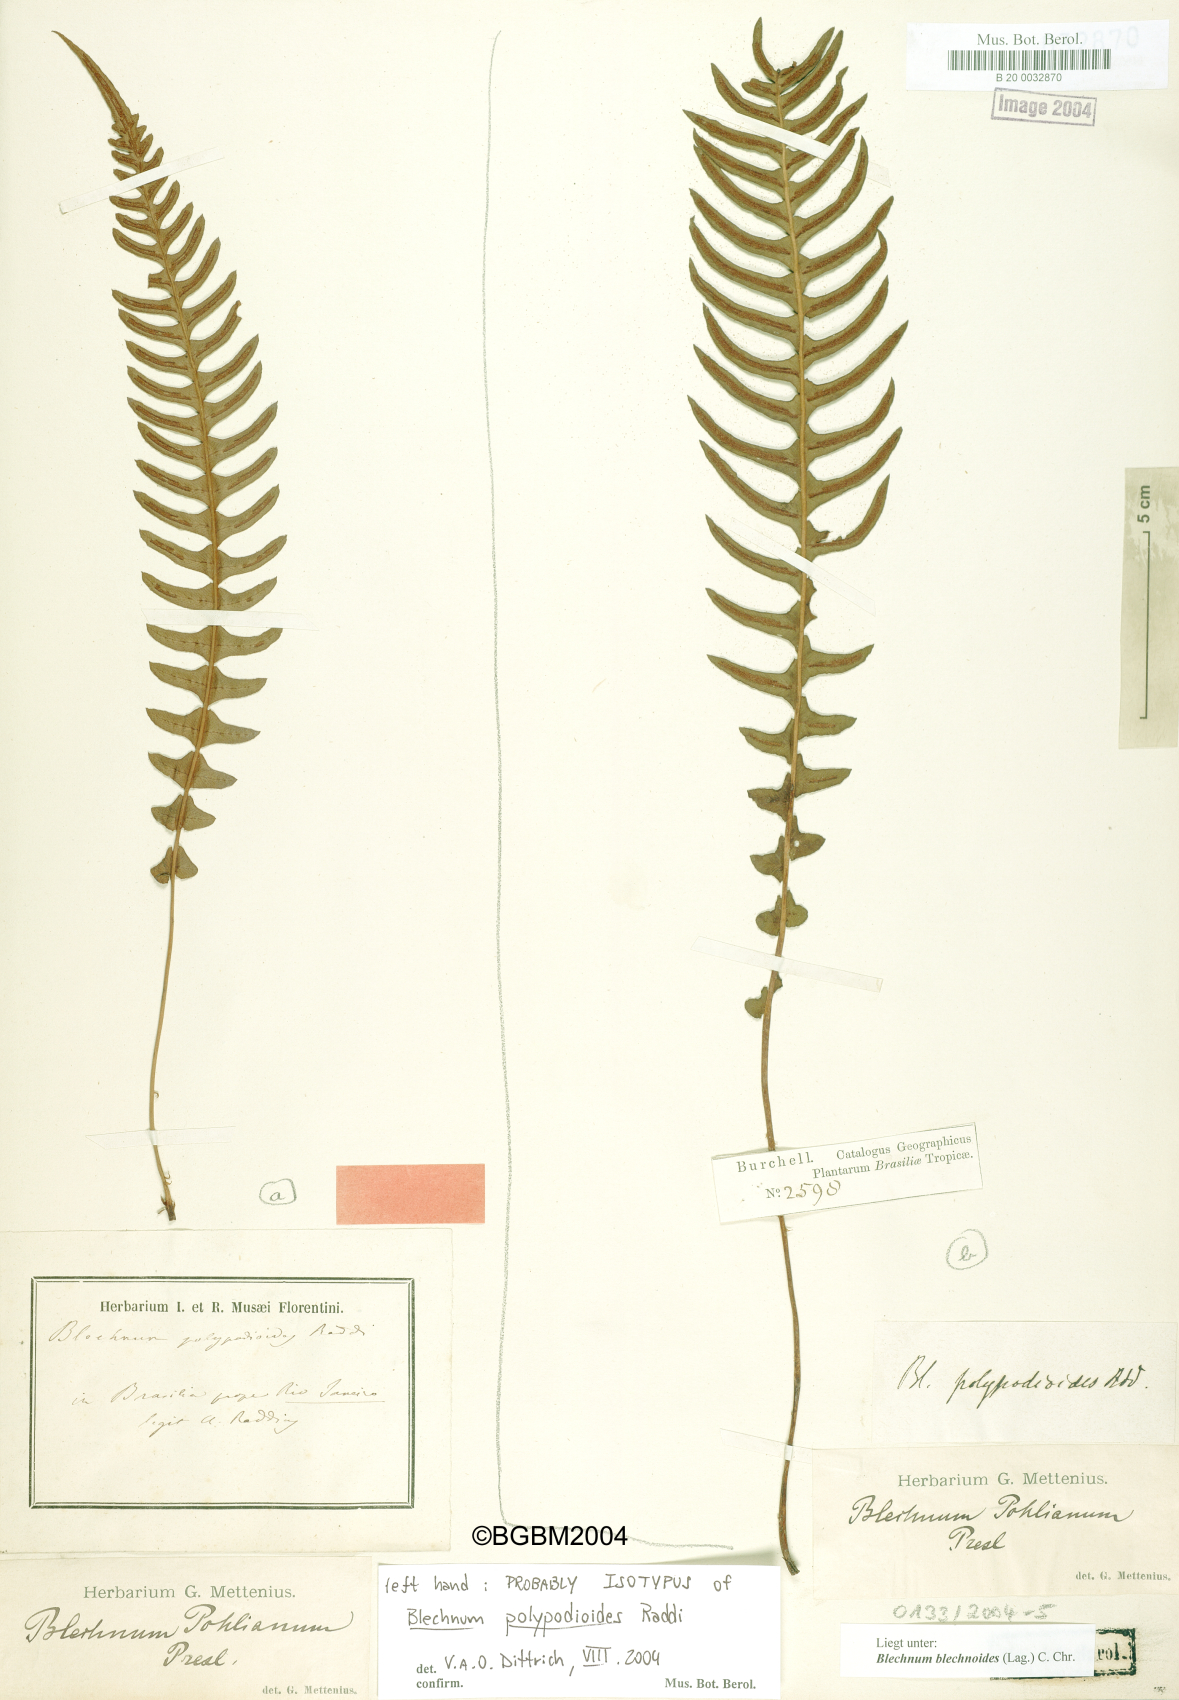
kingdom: Plantae
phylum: Tracheophyta
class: Polypodiopsida
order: Polypodiales
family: Blechnaceae
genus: Blechnum
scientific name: Blechnum polypodioides
